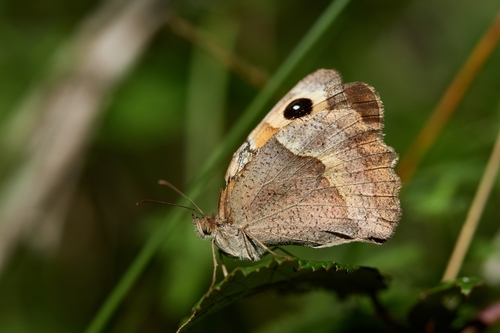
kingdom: Animalia
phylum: Arthropoda
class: Insecta
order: Lepidoptera
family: Nymphalidae
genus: Maniola
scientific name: Maniola jurtina
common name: Meadow brown
